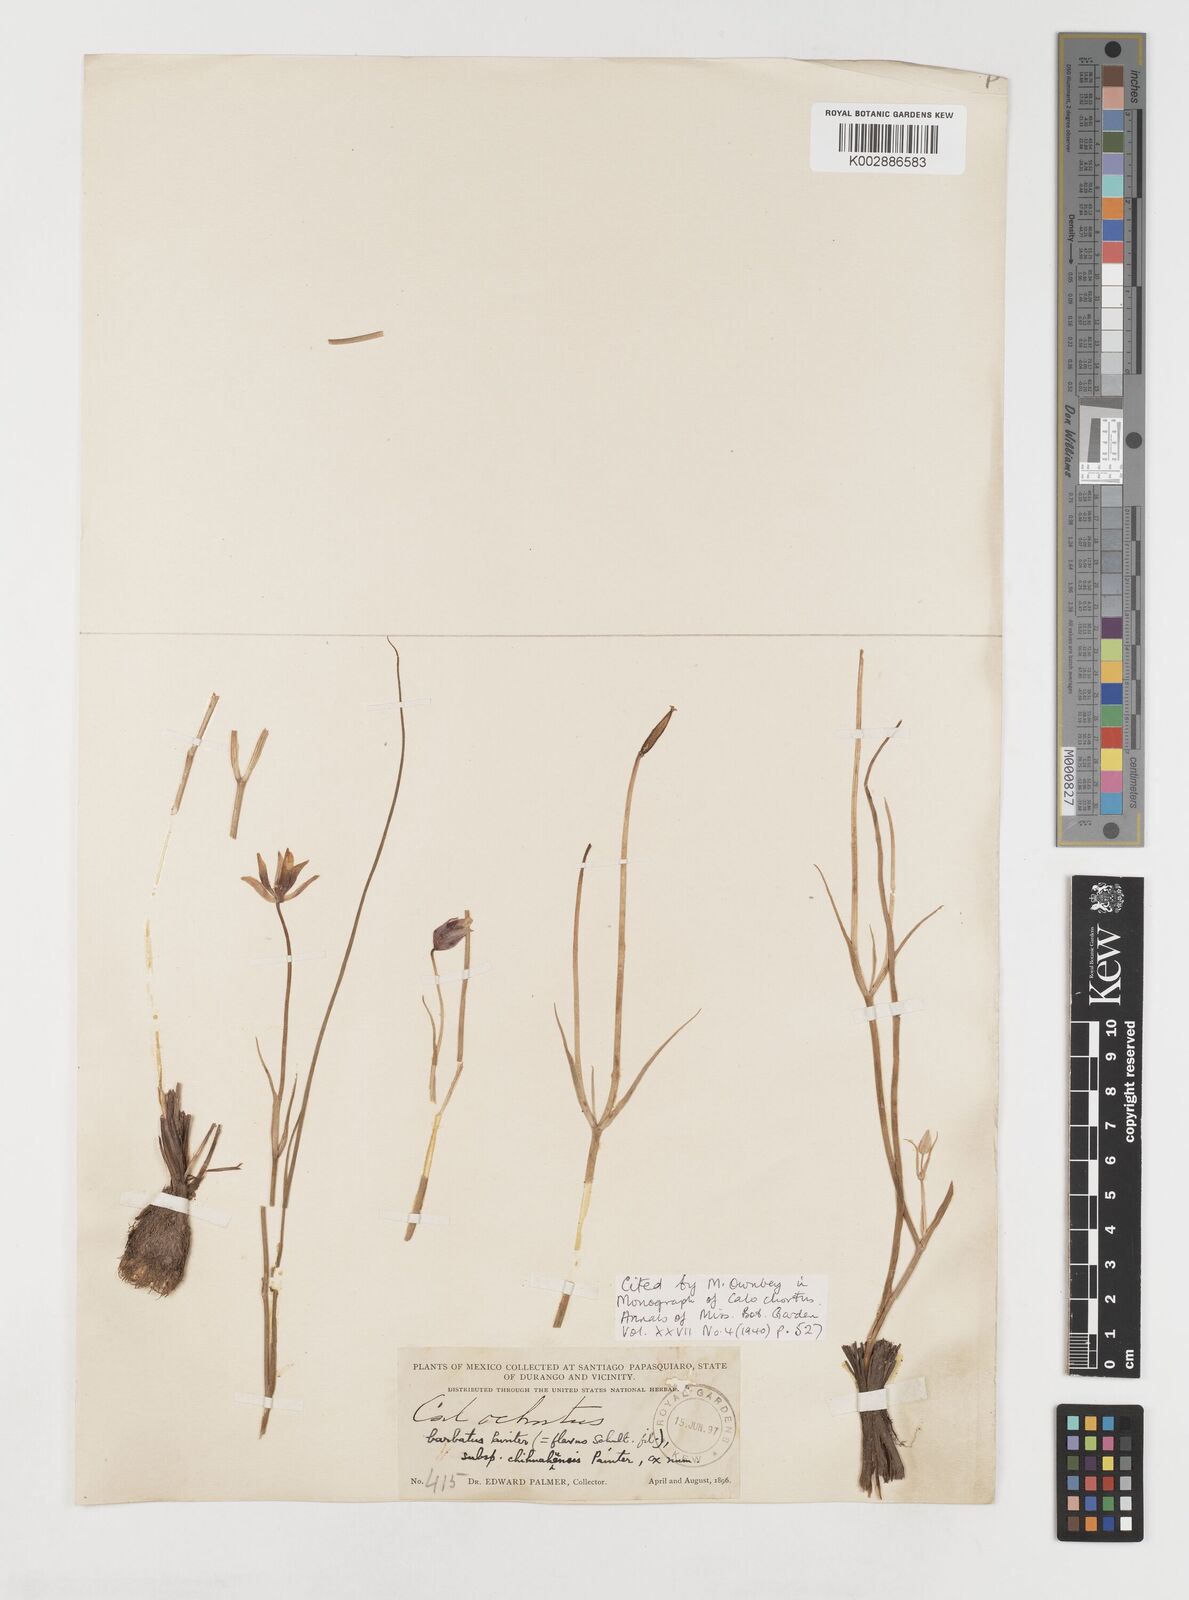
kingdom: Plantae
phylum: Tracheophyta
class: Liliopsida
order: Liliales
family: Liliaceae
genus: Calochortus
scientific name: Calochortus barbatus
